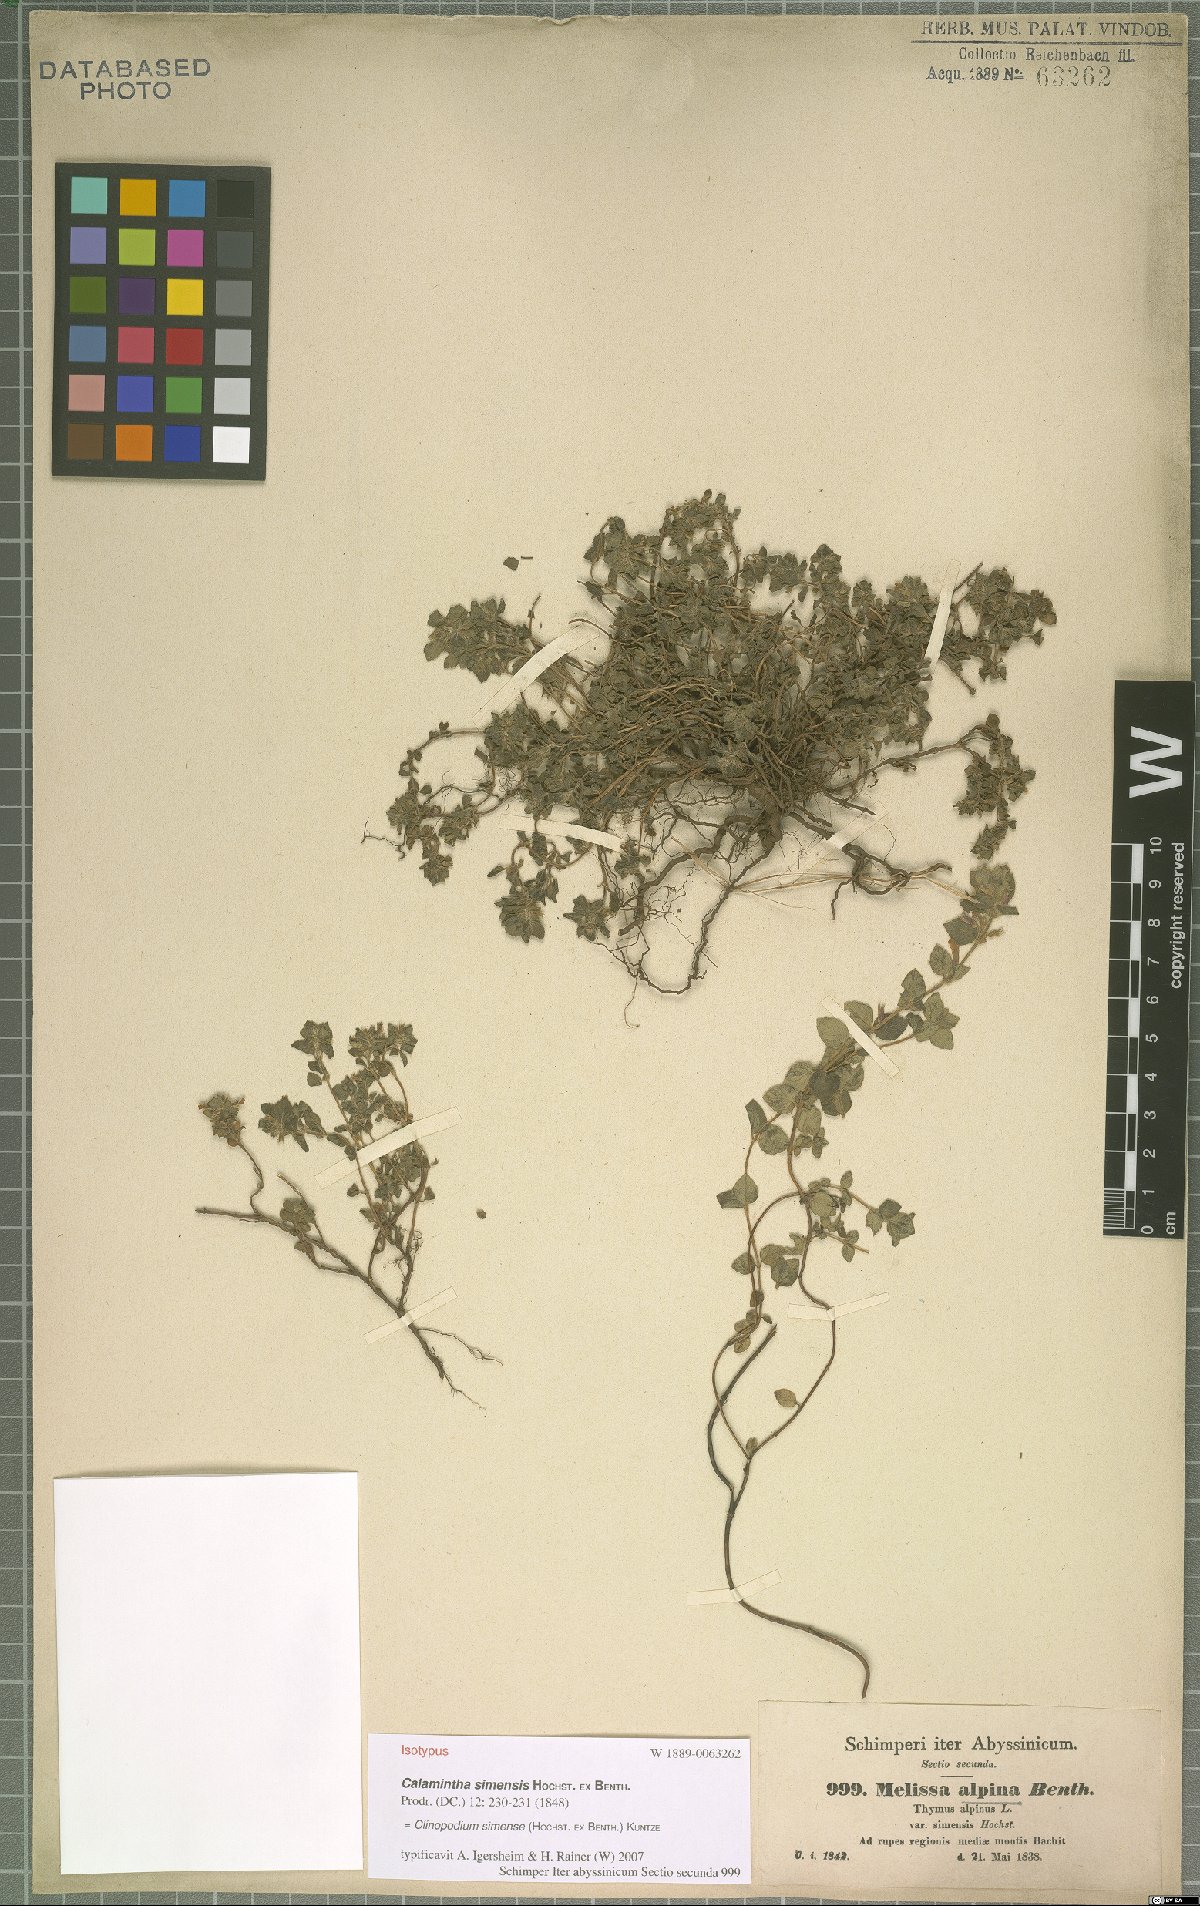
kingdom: Plantae
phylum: Tracheophyta
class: Magnoliopsida
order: Lamiales
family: Lamiaceae
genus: Clinopodium
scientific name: Clinopodium simense
